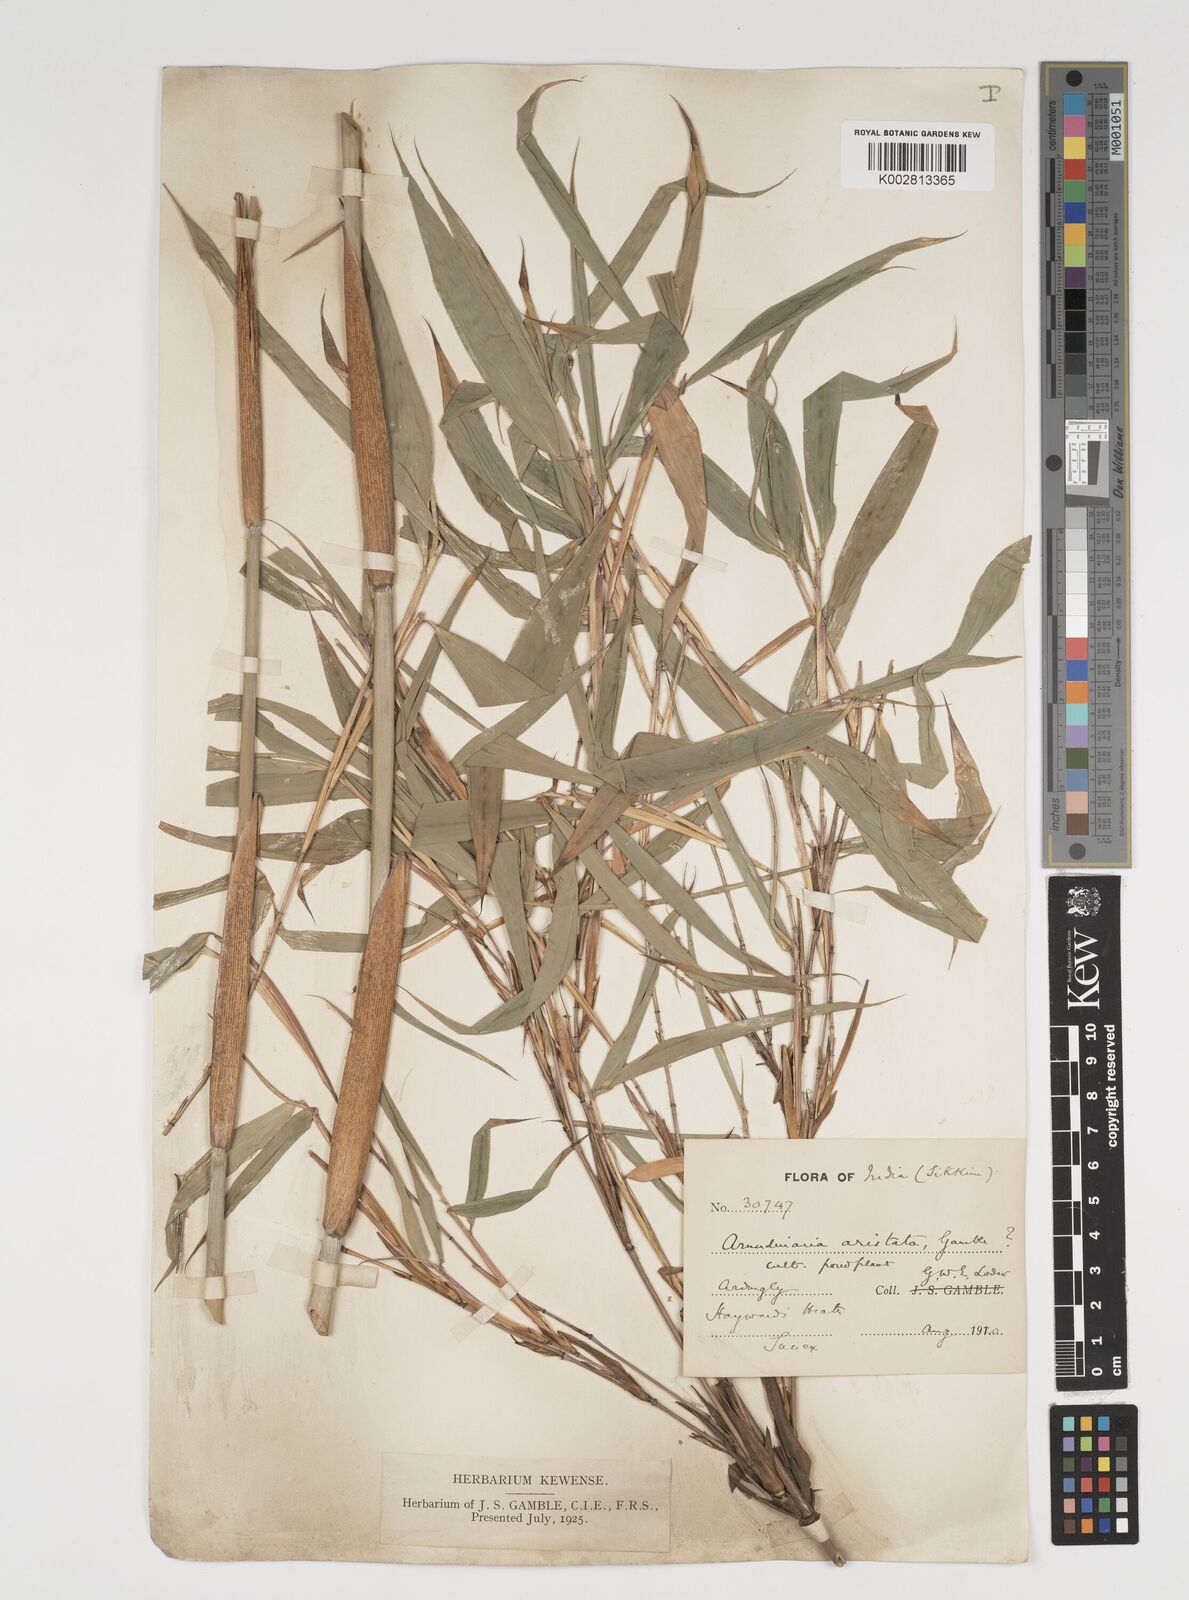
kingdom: Plantae
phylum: Tracheophyta
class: Liliopsida
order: Poales
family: Poaceae
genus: Thamnocalamus
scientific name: Thamnocalamus spathiflorus
